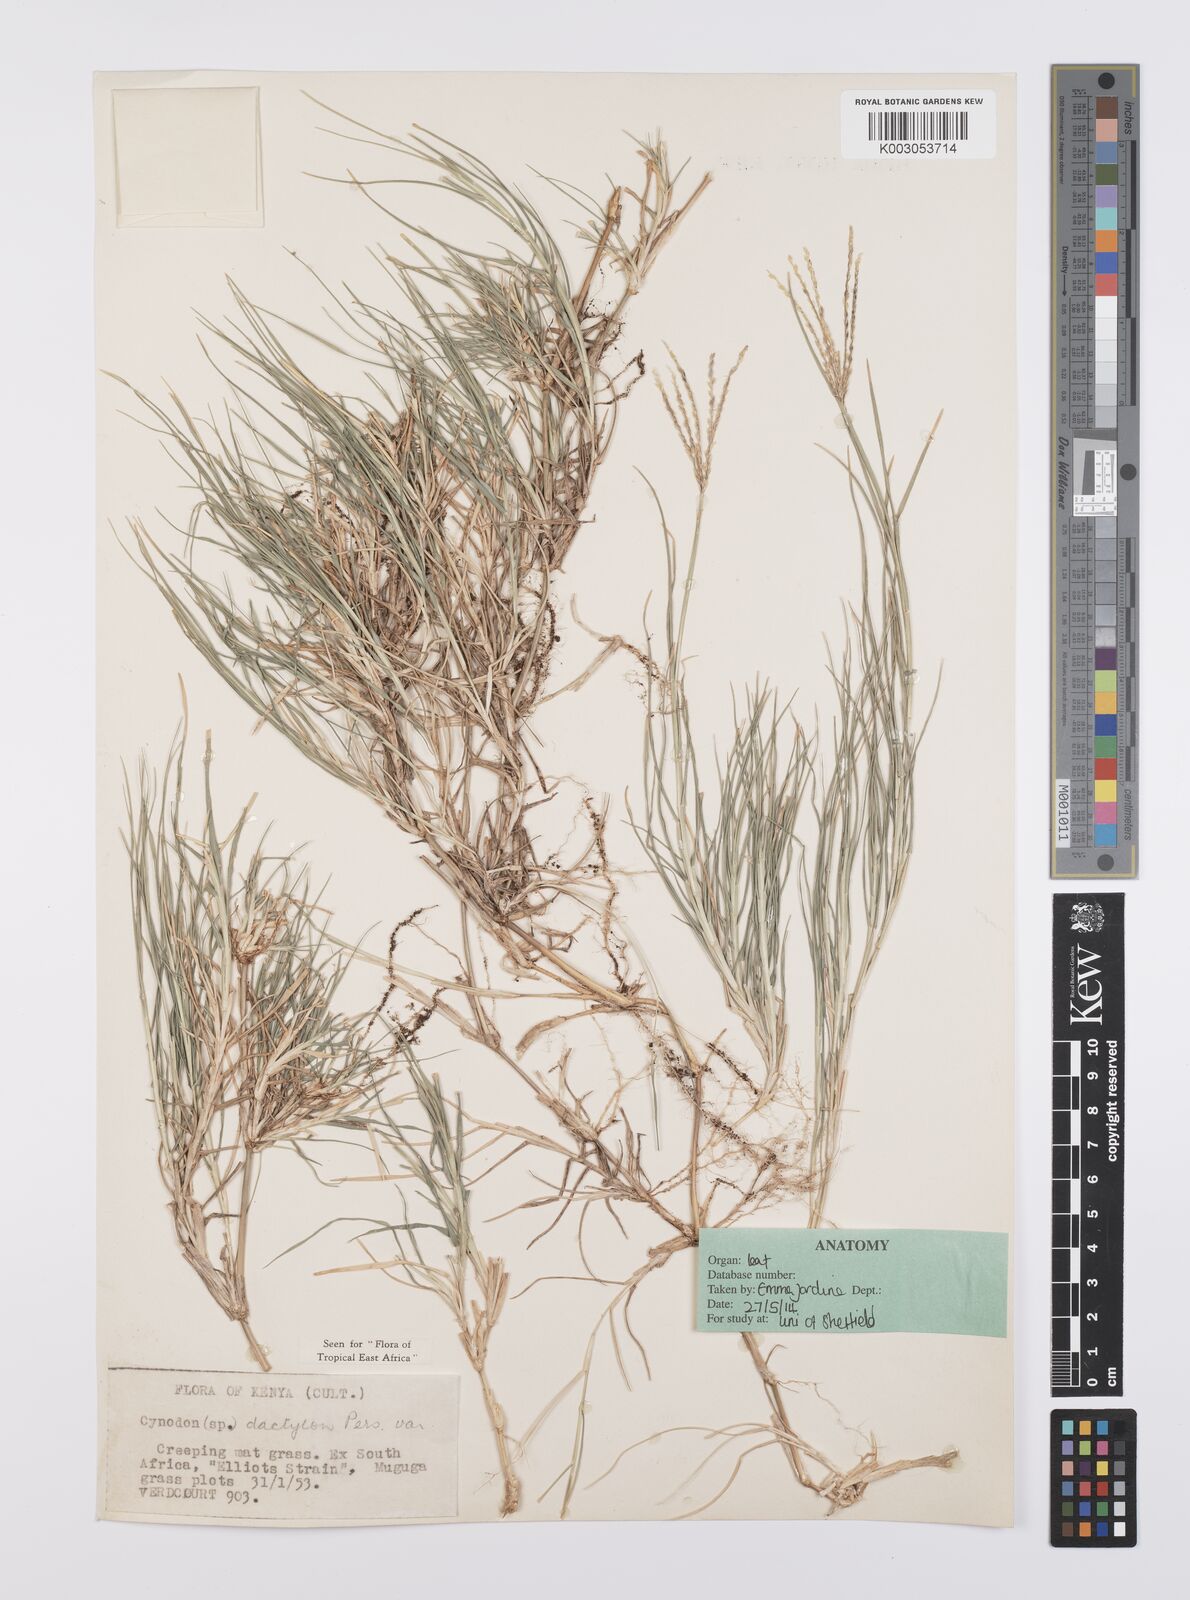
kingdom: Plantae
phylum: Tracheophyta
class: Liliopsida
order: Poales
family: Poaceae
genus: Cynodon
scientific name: Cynodon dactylon
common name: Bermuda grass
